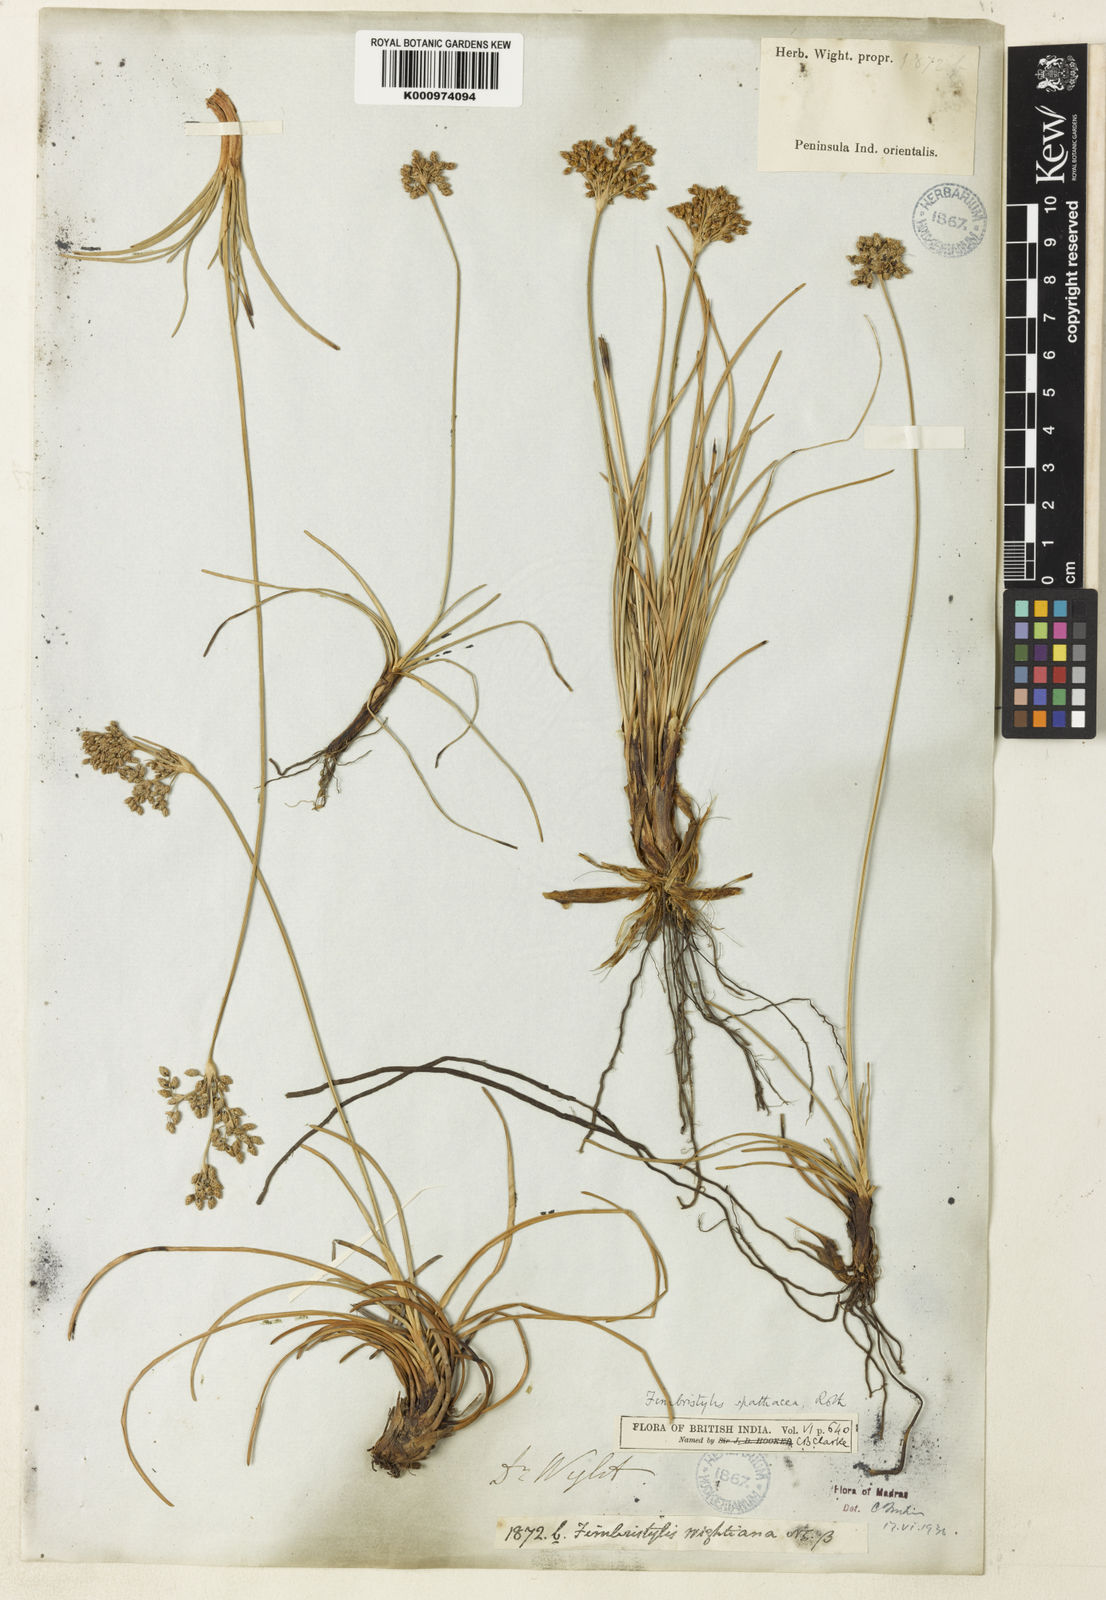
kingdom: Plantae
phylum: Tracheophyta
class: Liliopsida
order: Poales
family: Cyperaceae
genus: Fimbristylis
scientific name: Fimbristylis cymosa
